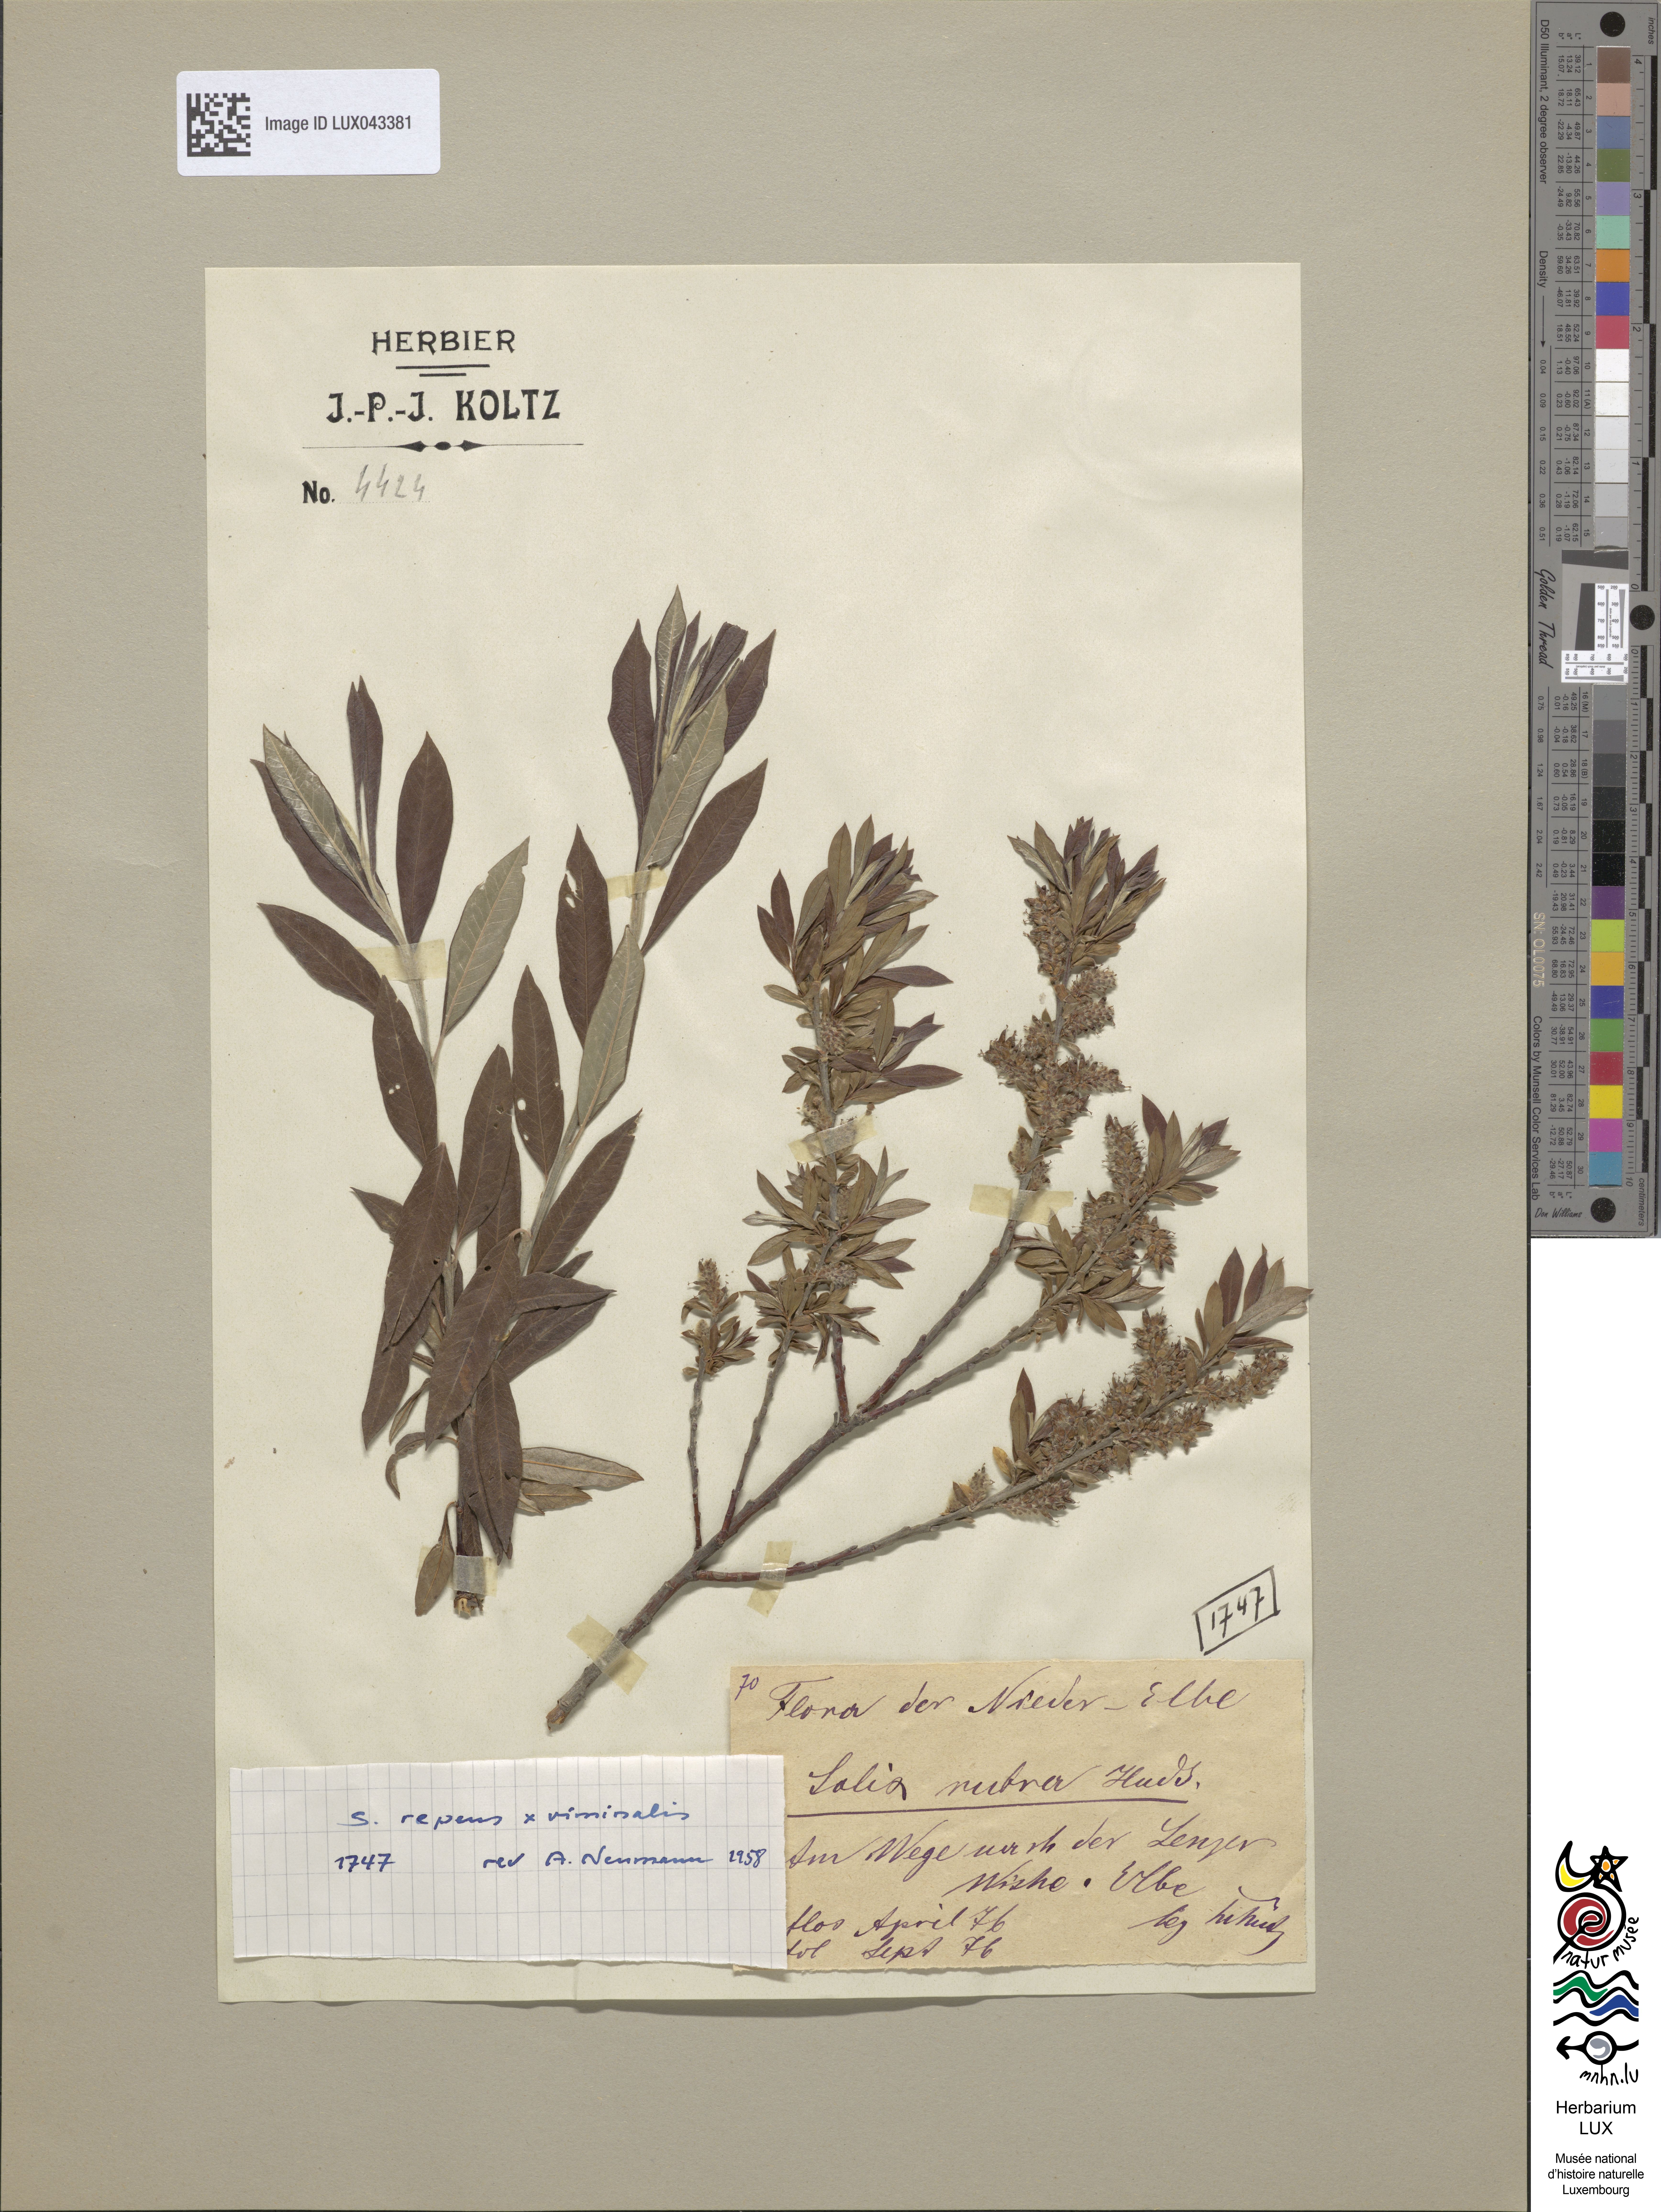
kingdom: Plantae
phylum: Tracheophyta
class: Magnoliopsida
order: Malpighiales
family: Salicaceae
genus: Salix
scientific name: Salix
